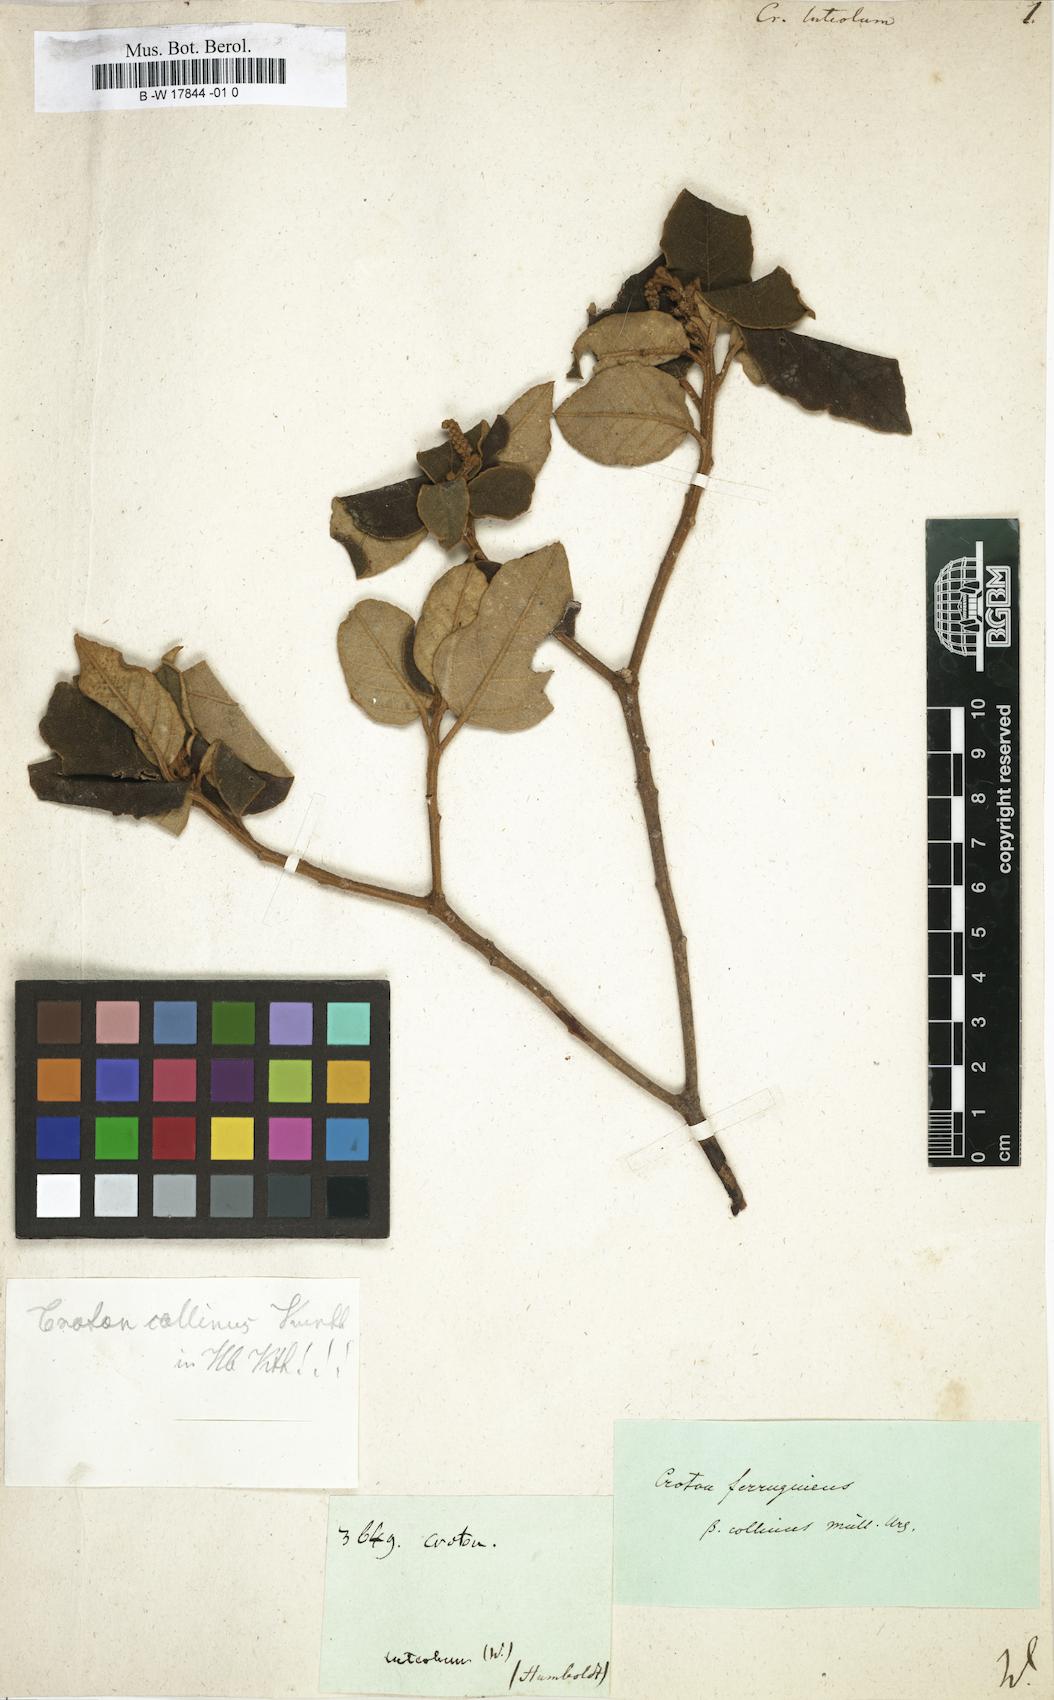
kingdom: Plantae
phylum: Tracheophyta
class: Magnoliopsida
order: Malpighiales
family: Euphorbiaceae
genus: Croton
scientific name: Croton
